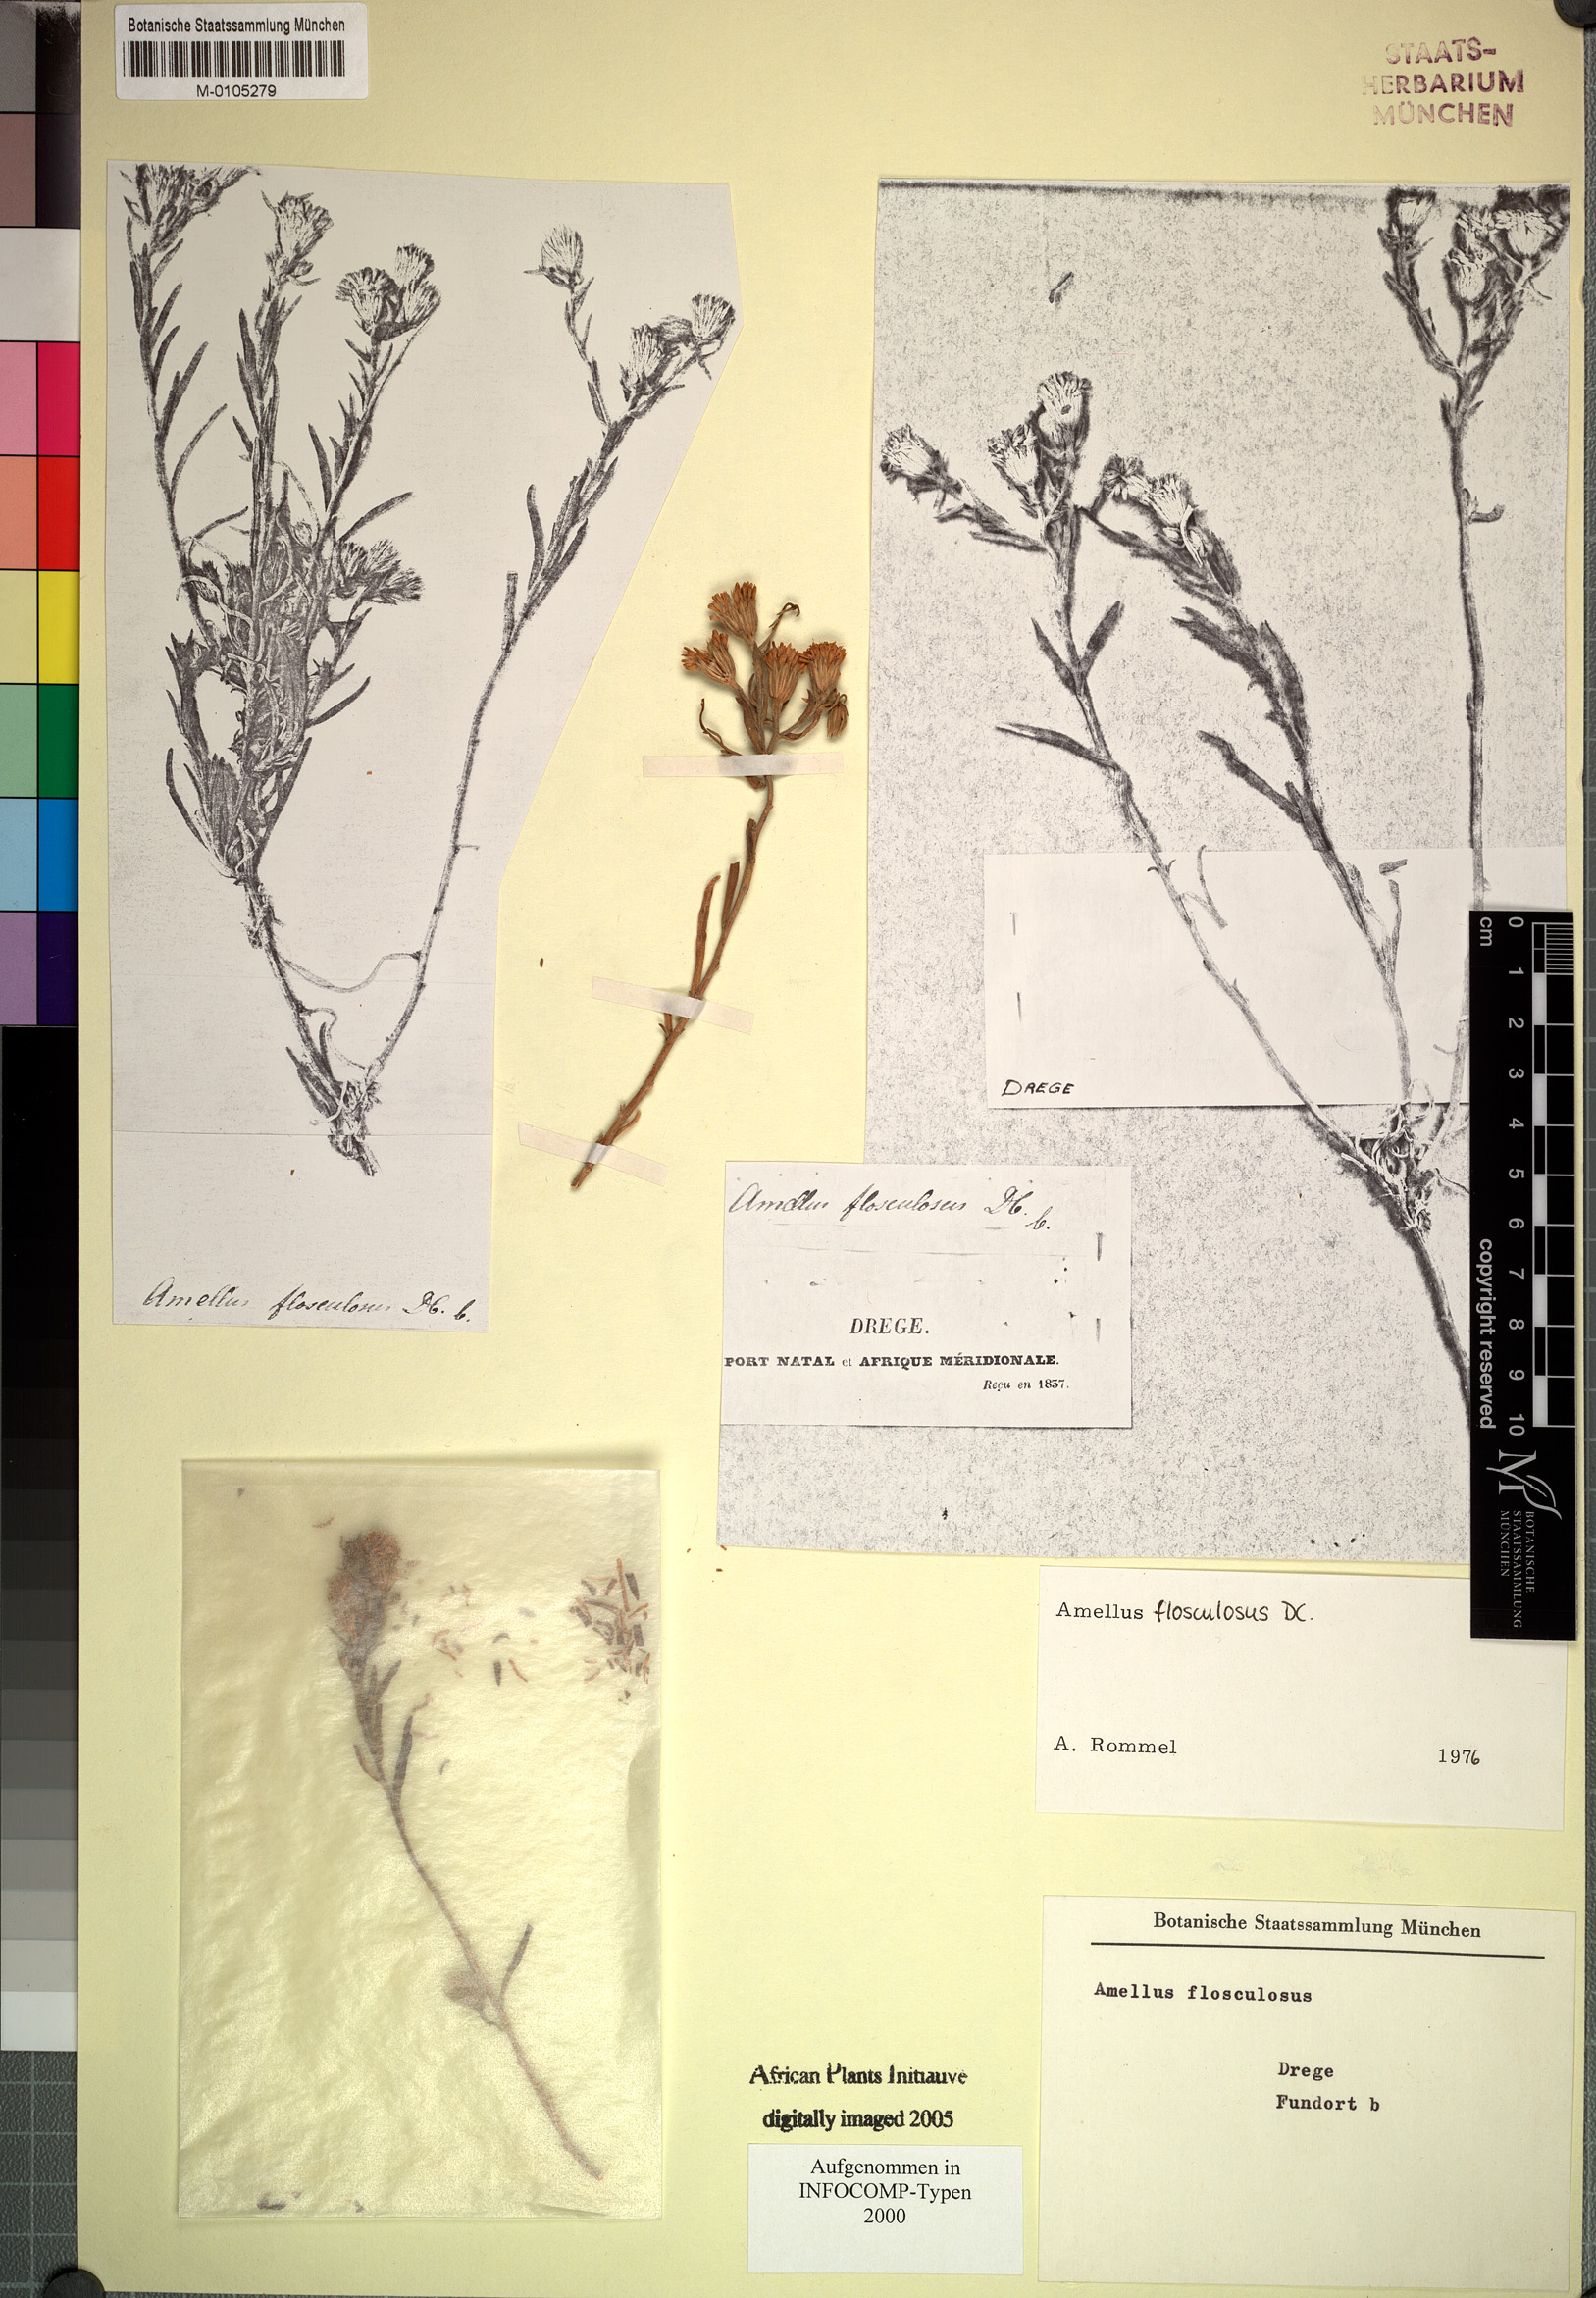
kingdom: Plantae
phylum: Tracheophyta
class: Magnoliopsida
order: Asterales
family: Asteraceae
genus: Amellus
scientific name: Amellus flosculosus
